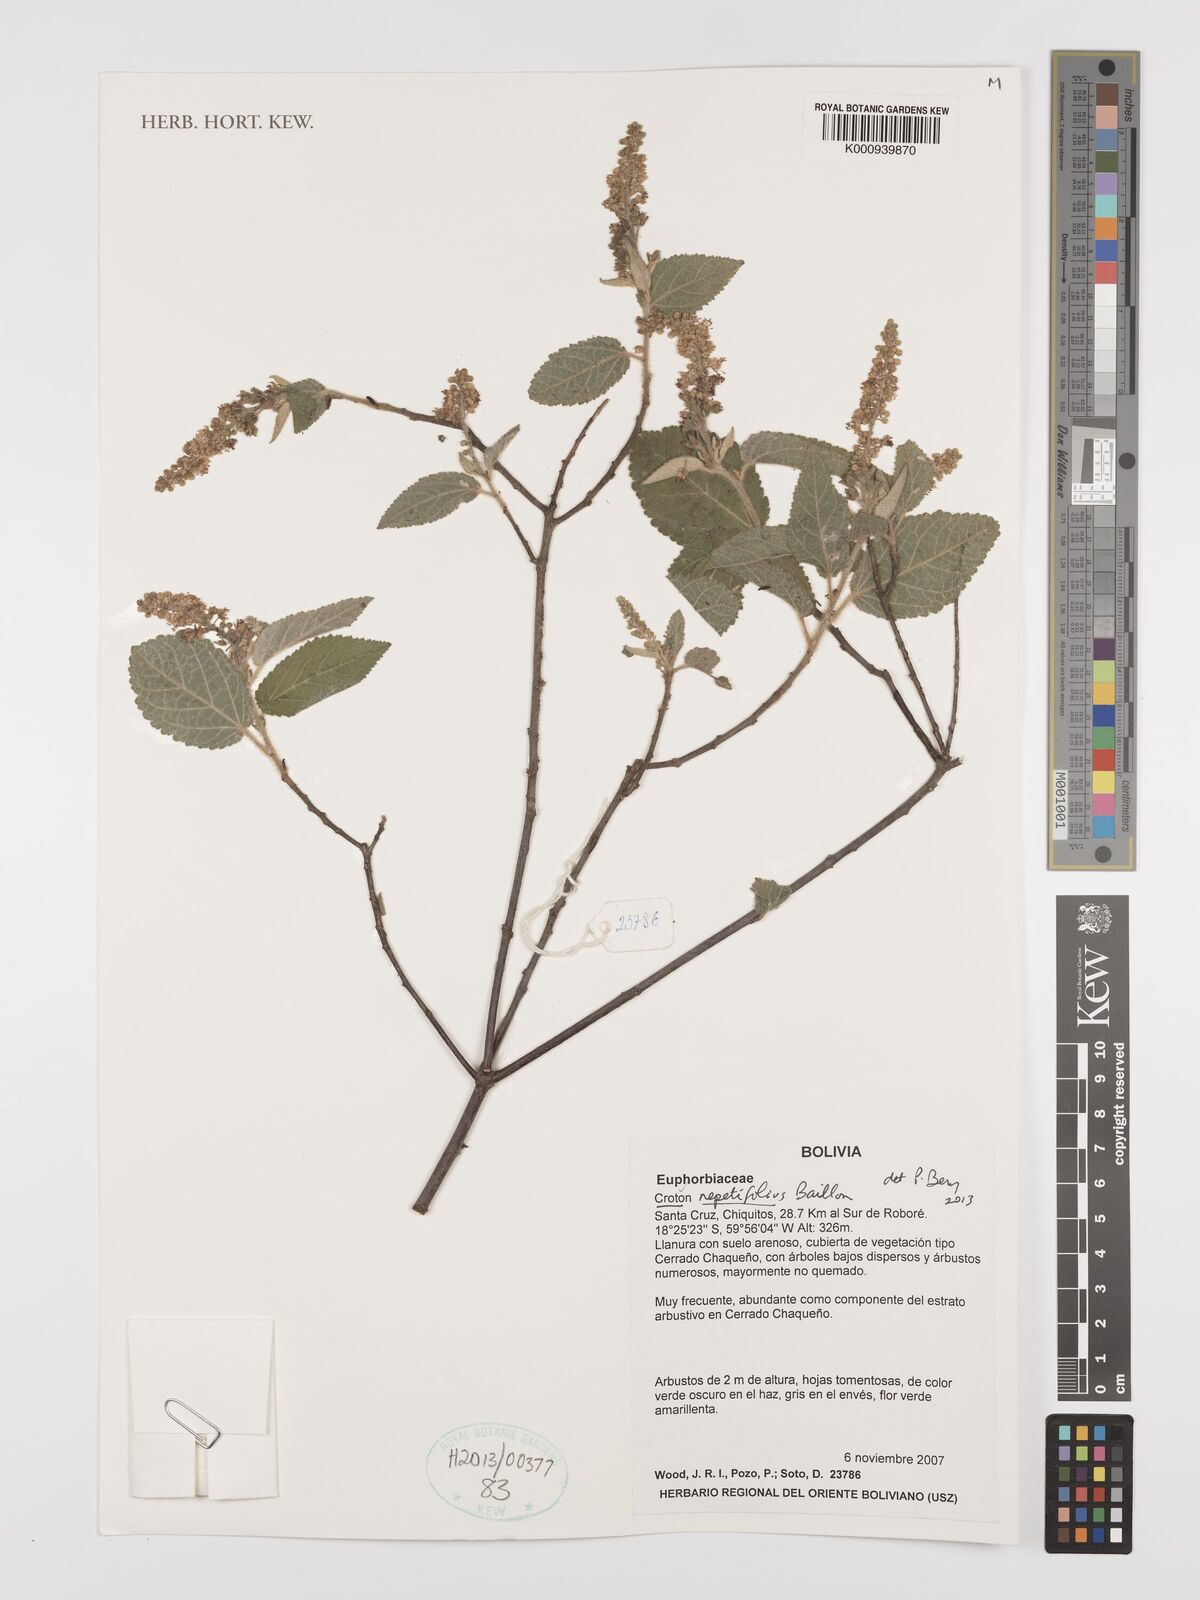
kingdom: Plantae
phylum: Tracheophyta
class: Magnoliopsida
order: Malpighiales
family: Euphorbiaceae
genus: Croton
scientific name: Croton nepetifolius
